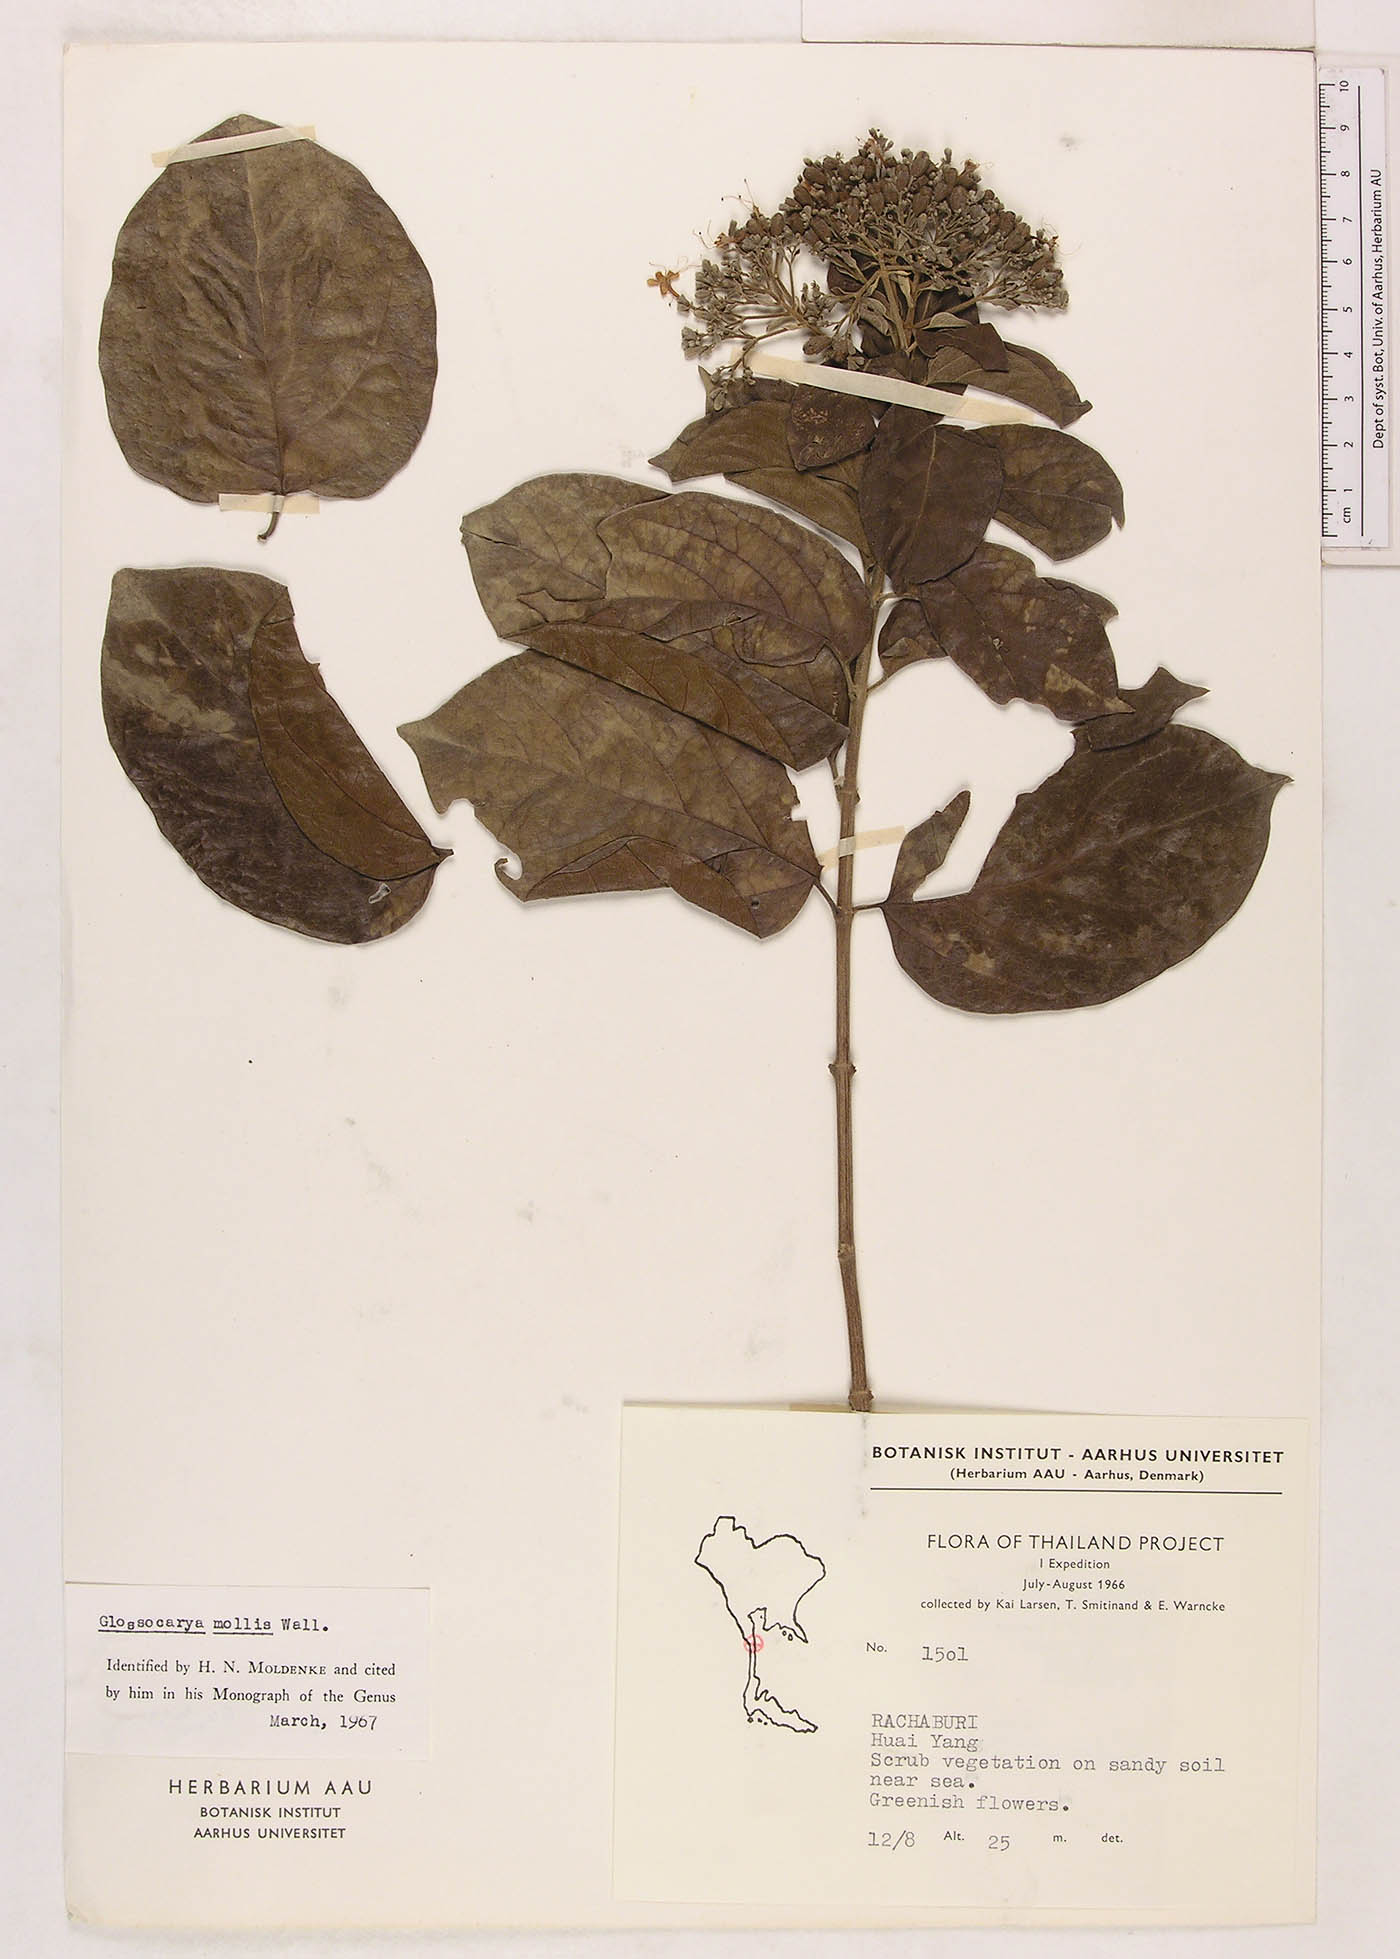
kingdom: Plantae
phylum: Tracheophyta
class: Magnoliopsida
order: Lamiales
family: Lamiaceae
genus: Glossocarya
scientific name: Glossocarya mollis
